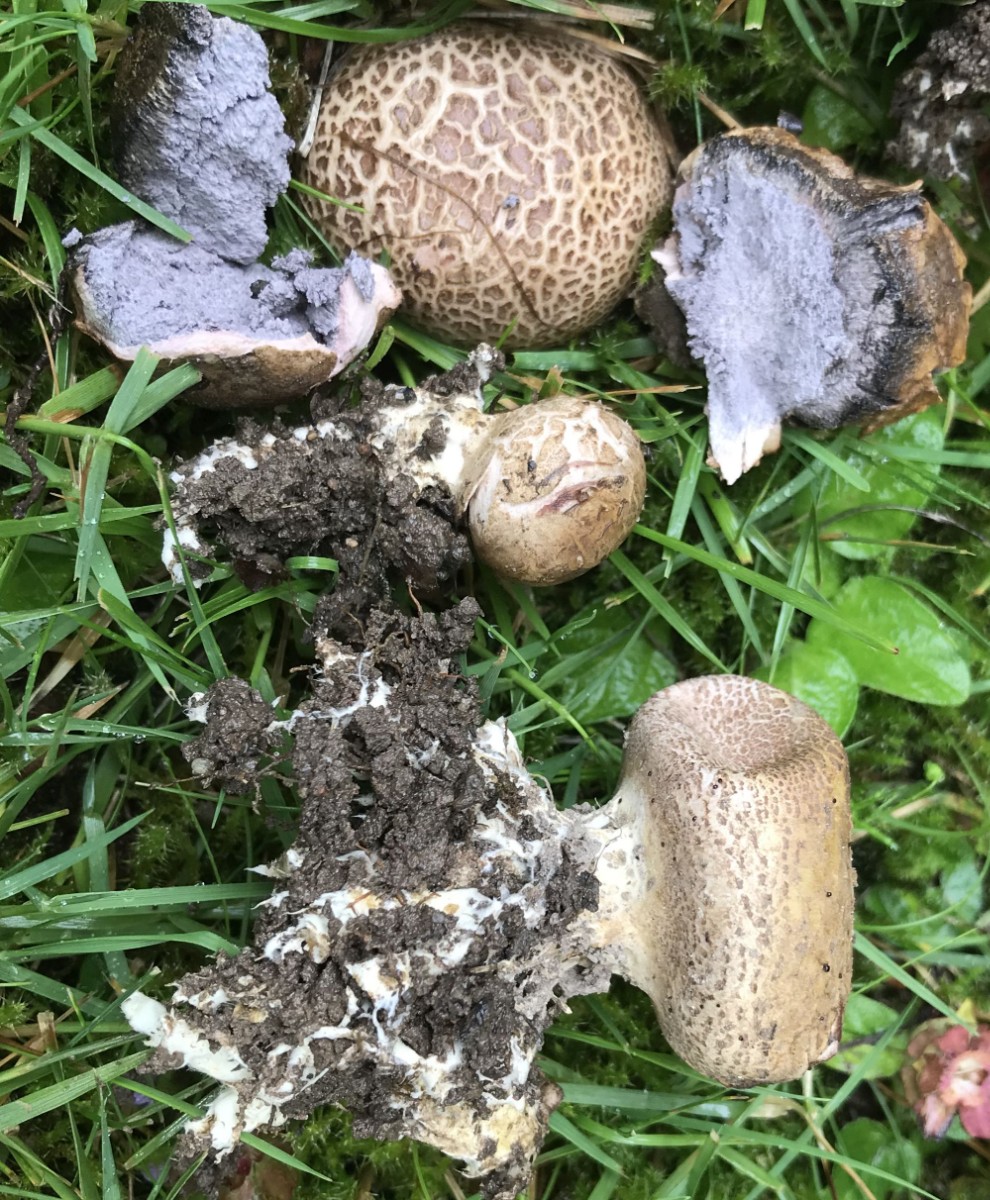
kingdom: Fungi
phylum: Basidiomycota
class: Agaricomycetes
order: Boletales
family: Sclerodermataceae
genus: Scleroderma
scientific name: Scleroderma verrucosum
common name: stilket bruskbold
